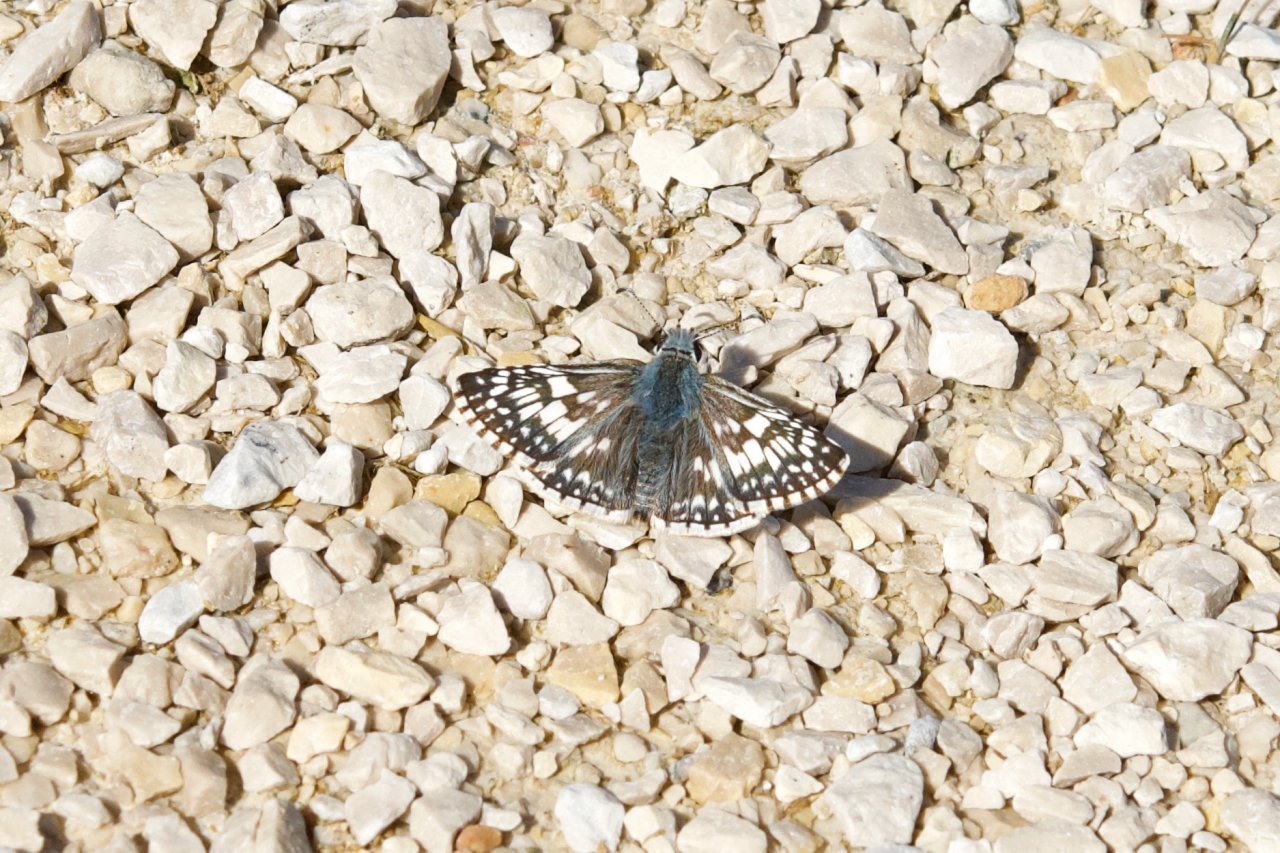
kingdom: Animalia
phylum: Arthropoda
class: Insecta
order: Lepidoptera
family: Hesperiidae
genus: Pyrgus
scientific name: Pyrgus communis
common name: Common Checkered-Skipper
